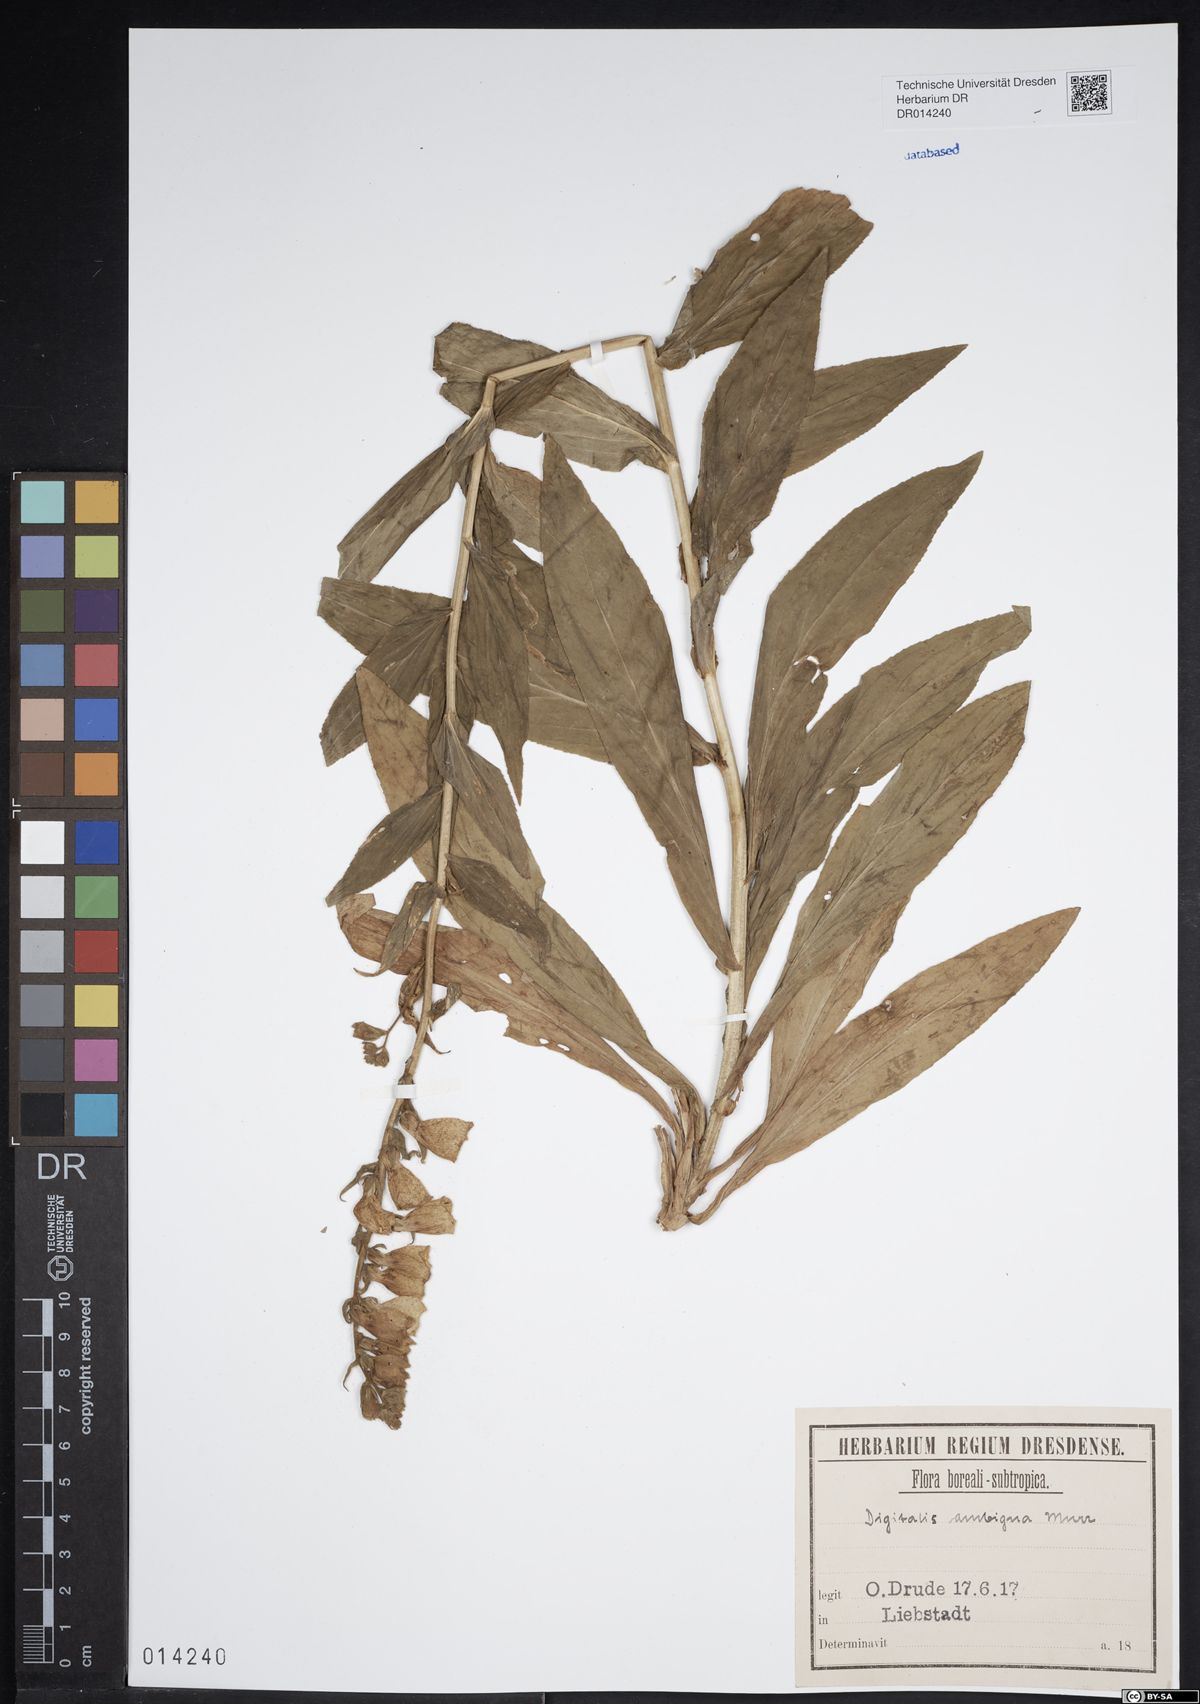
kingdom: Plantae
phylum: Tracheophyta
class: Magnoliopsida
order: Lamiales
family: Plantaginaceae
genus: Digitalis
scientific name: Digitalis grandiflora
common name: Yellow foxglove
